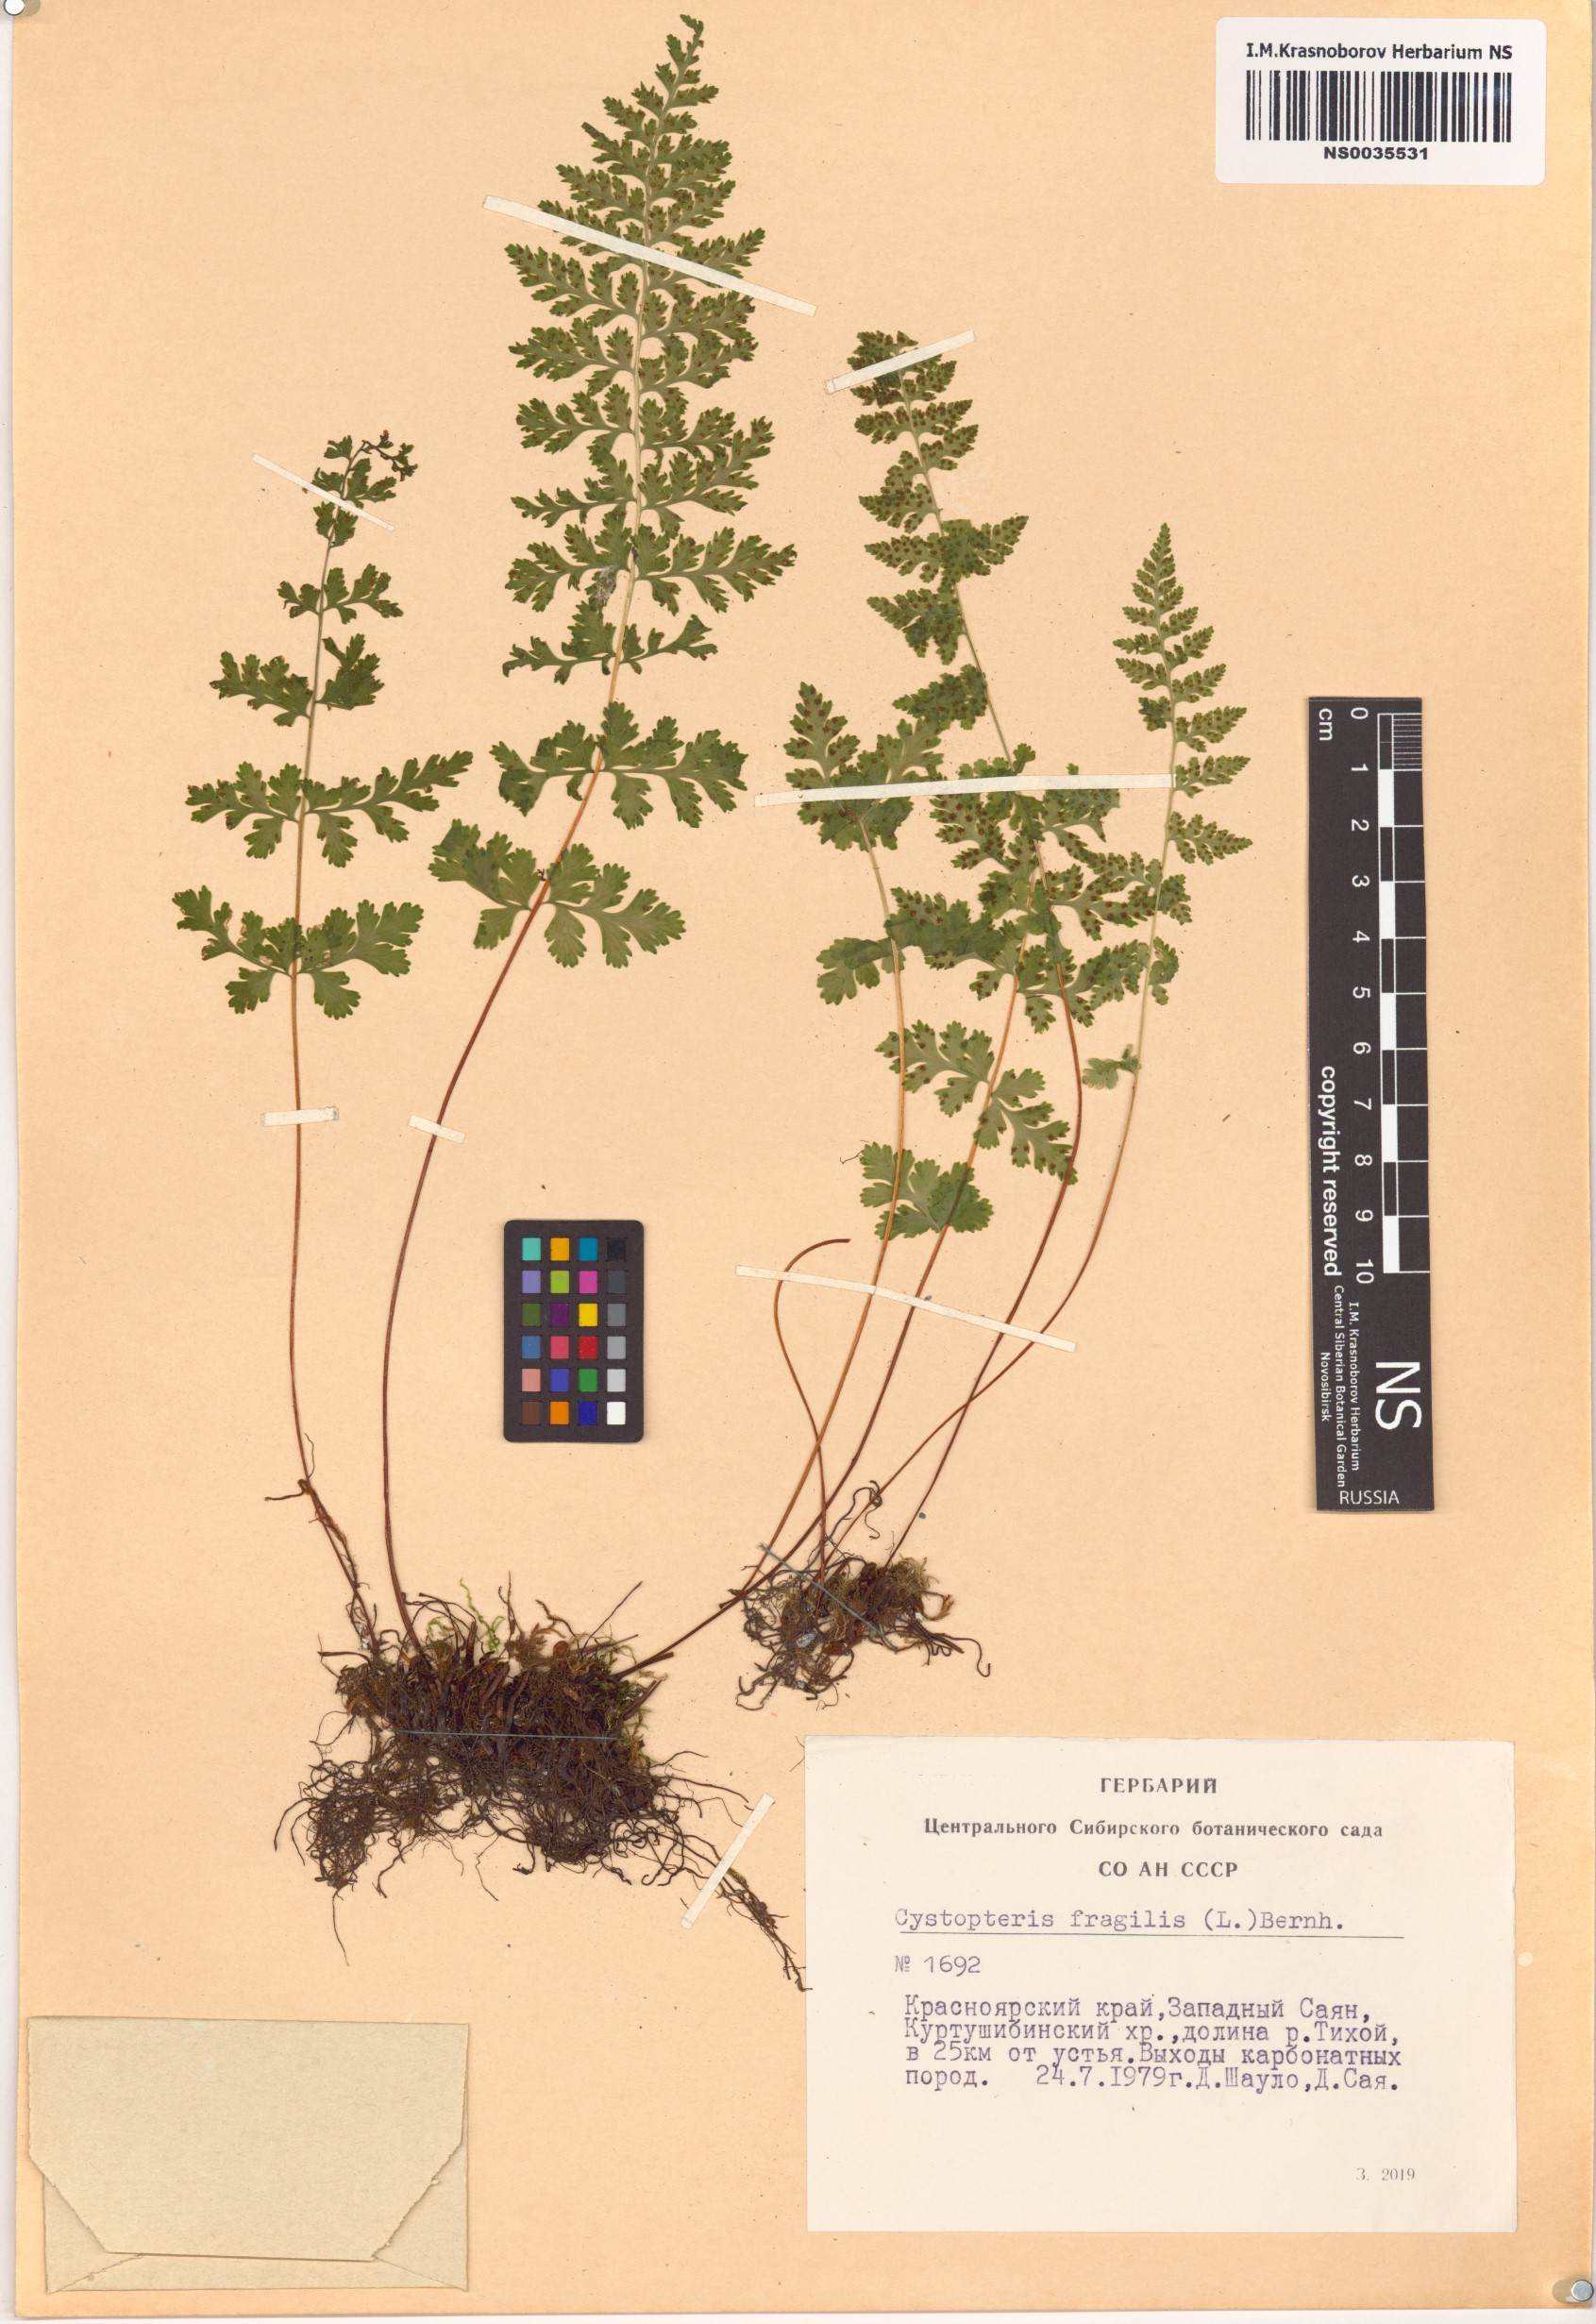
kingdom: Plantae
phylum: Tracheophyta
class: Polypodiopsida
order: Polypodiales
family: Cystopteridaceae
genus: Cystopteris
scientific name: Cystopteris fragilis
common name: Brittle bladder fern
